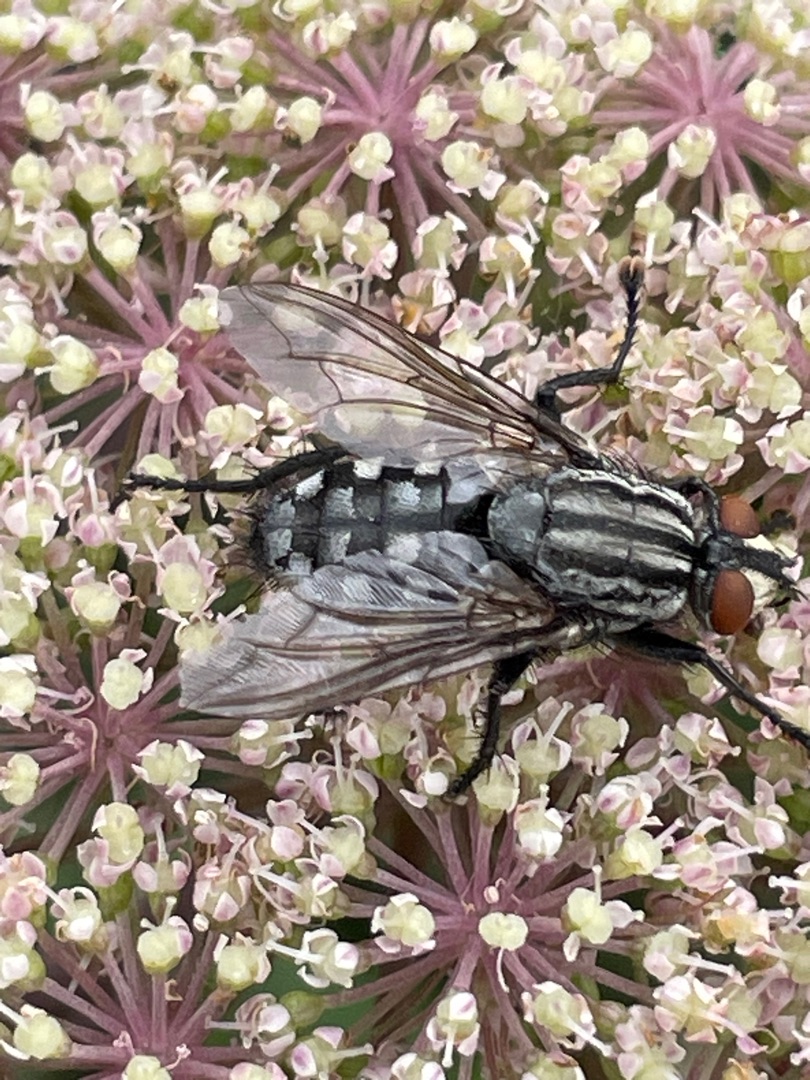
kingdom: Animalia
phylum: Arthropoda
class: Insecta
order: Diptera
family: Sarcophagidae
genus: Sarcophaga
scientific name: Sarcophaga
